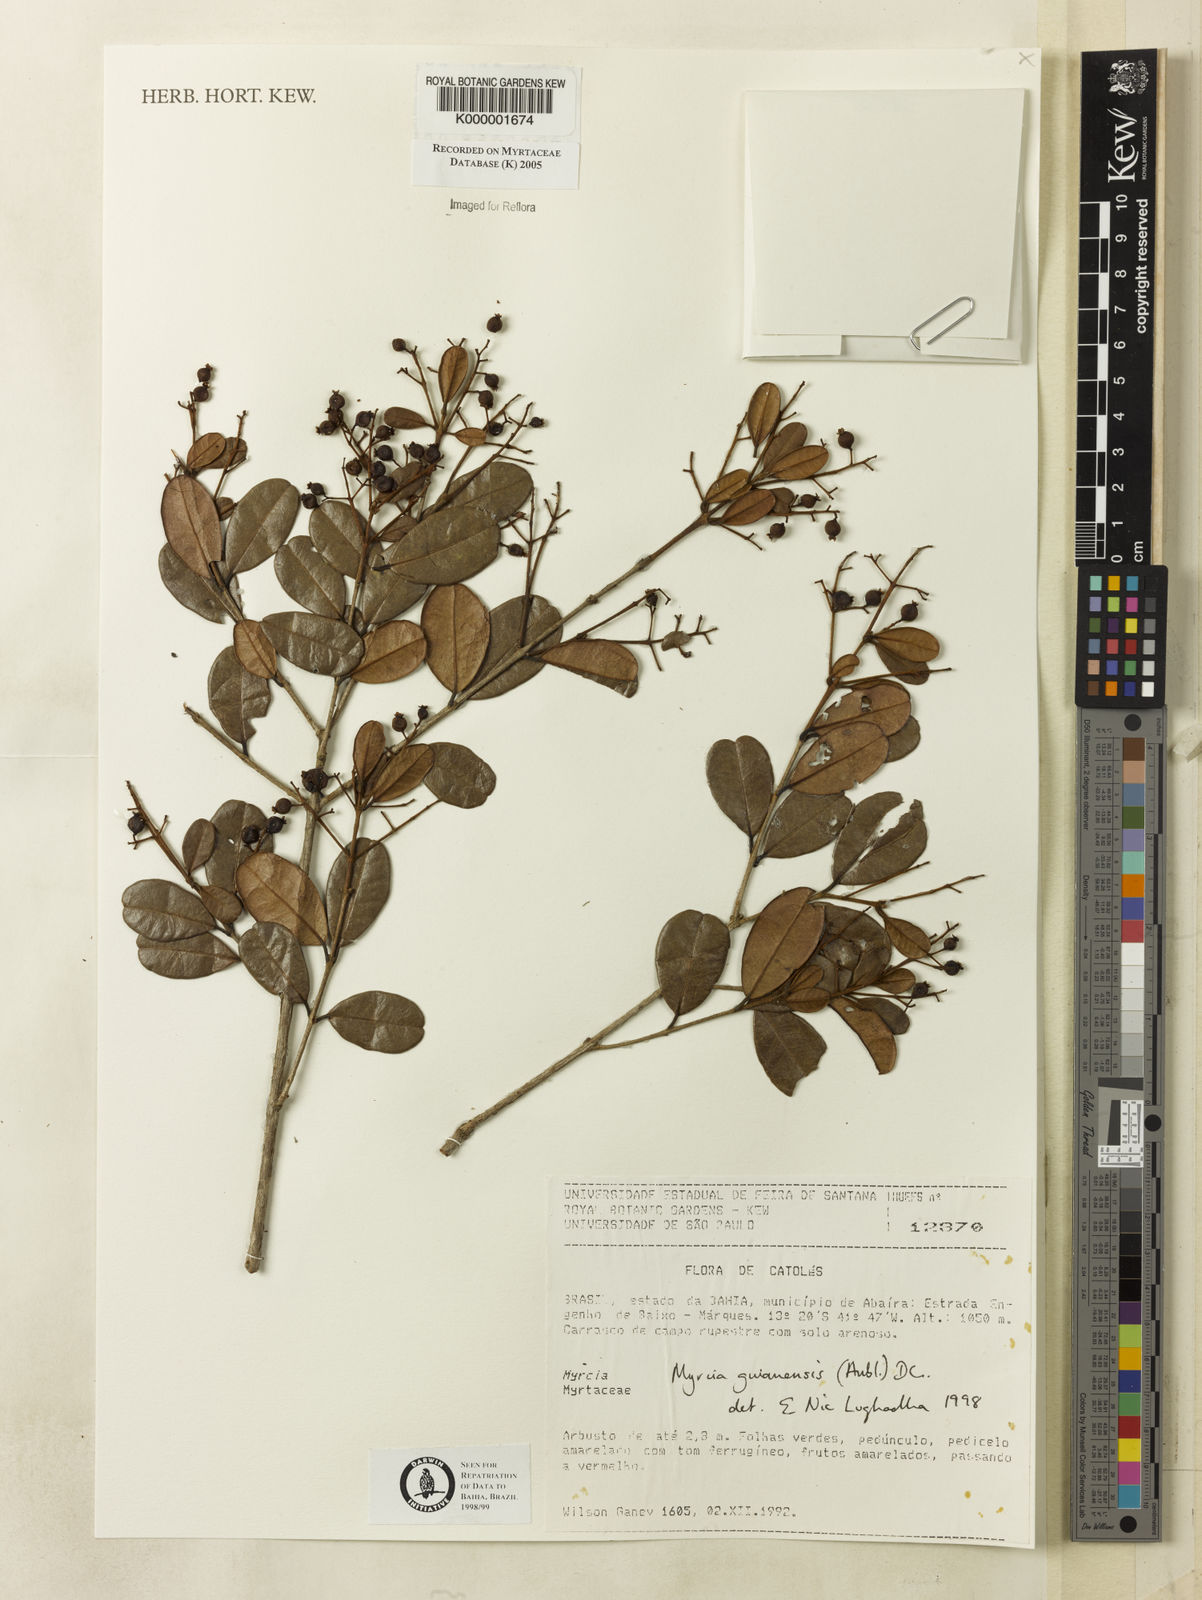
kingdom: Plantae
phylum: Tracheophyta
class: Magnoliopsida
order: Myrtales
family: Myrtaceae
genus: Myrcia
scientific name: Myrcia guianensis
